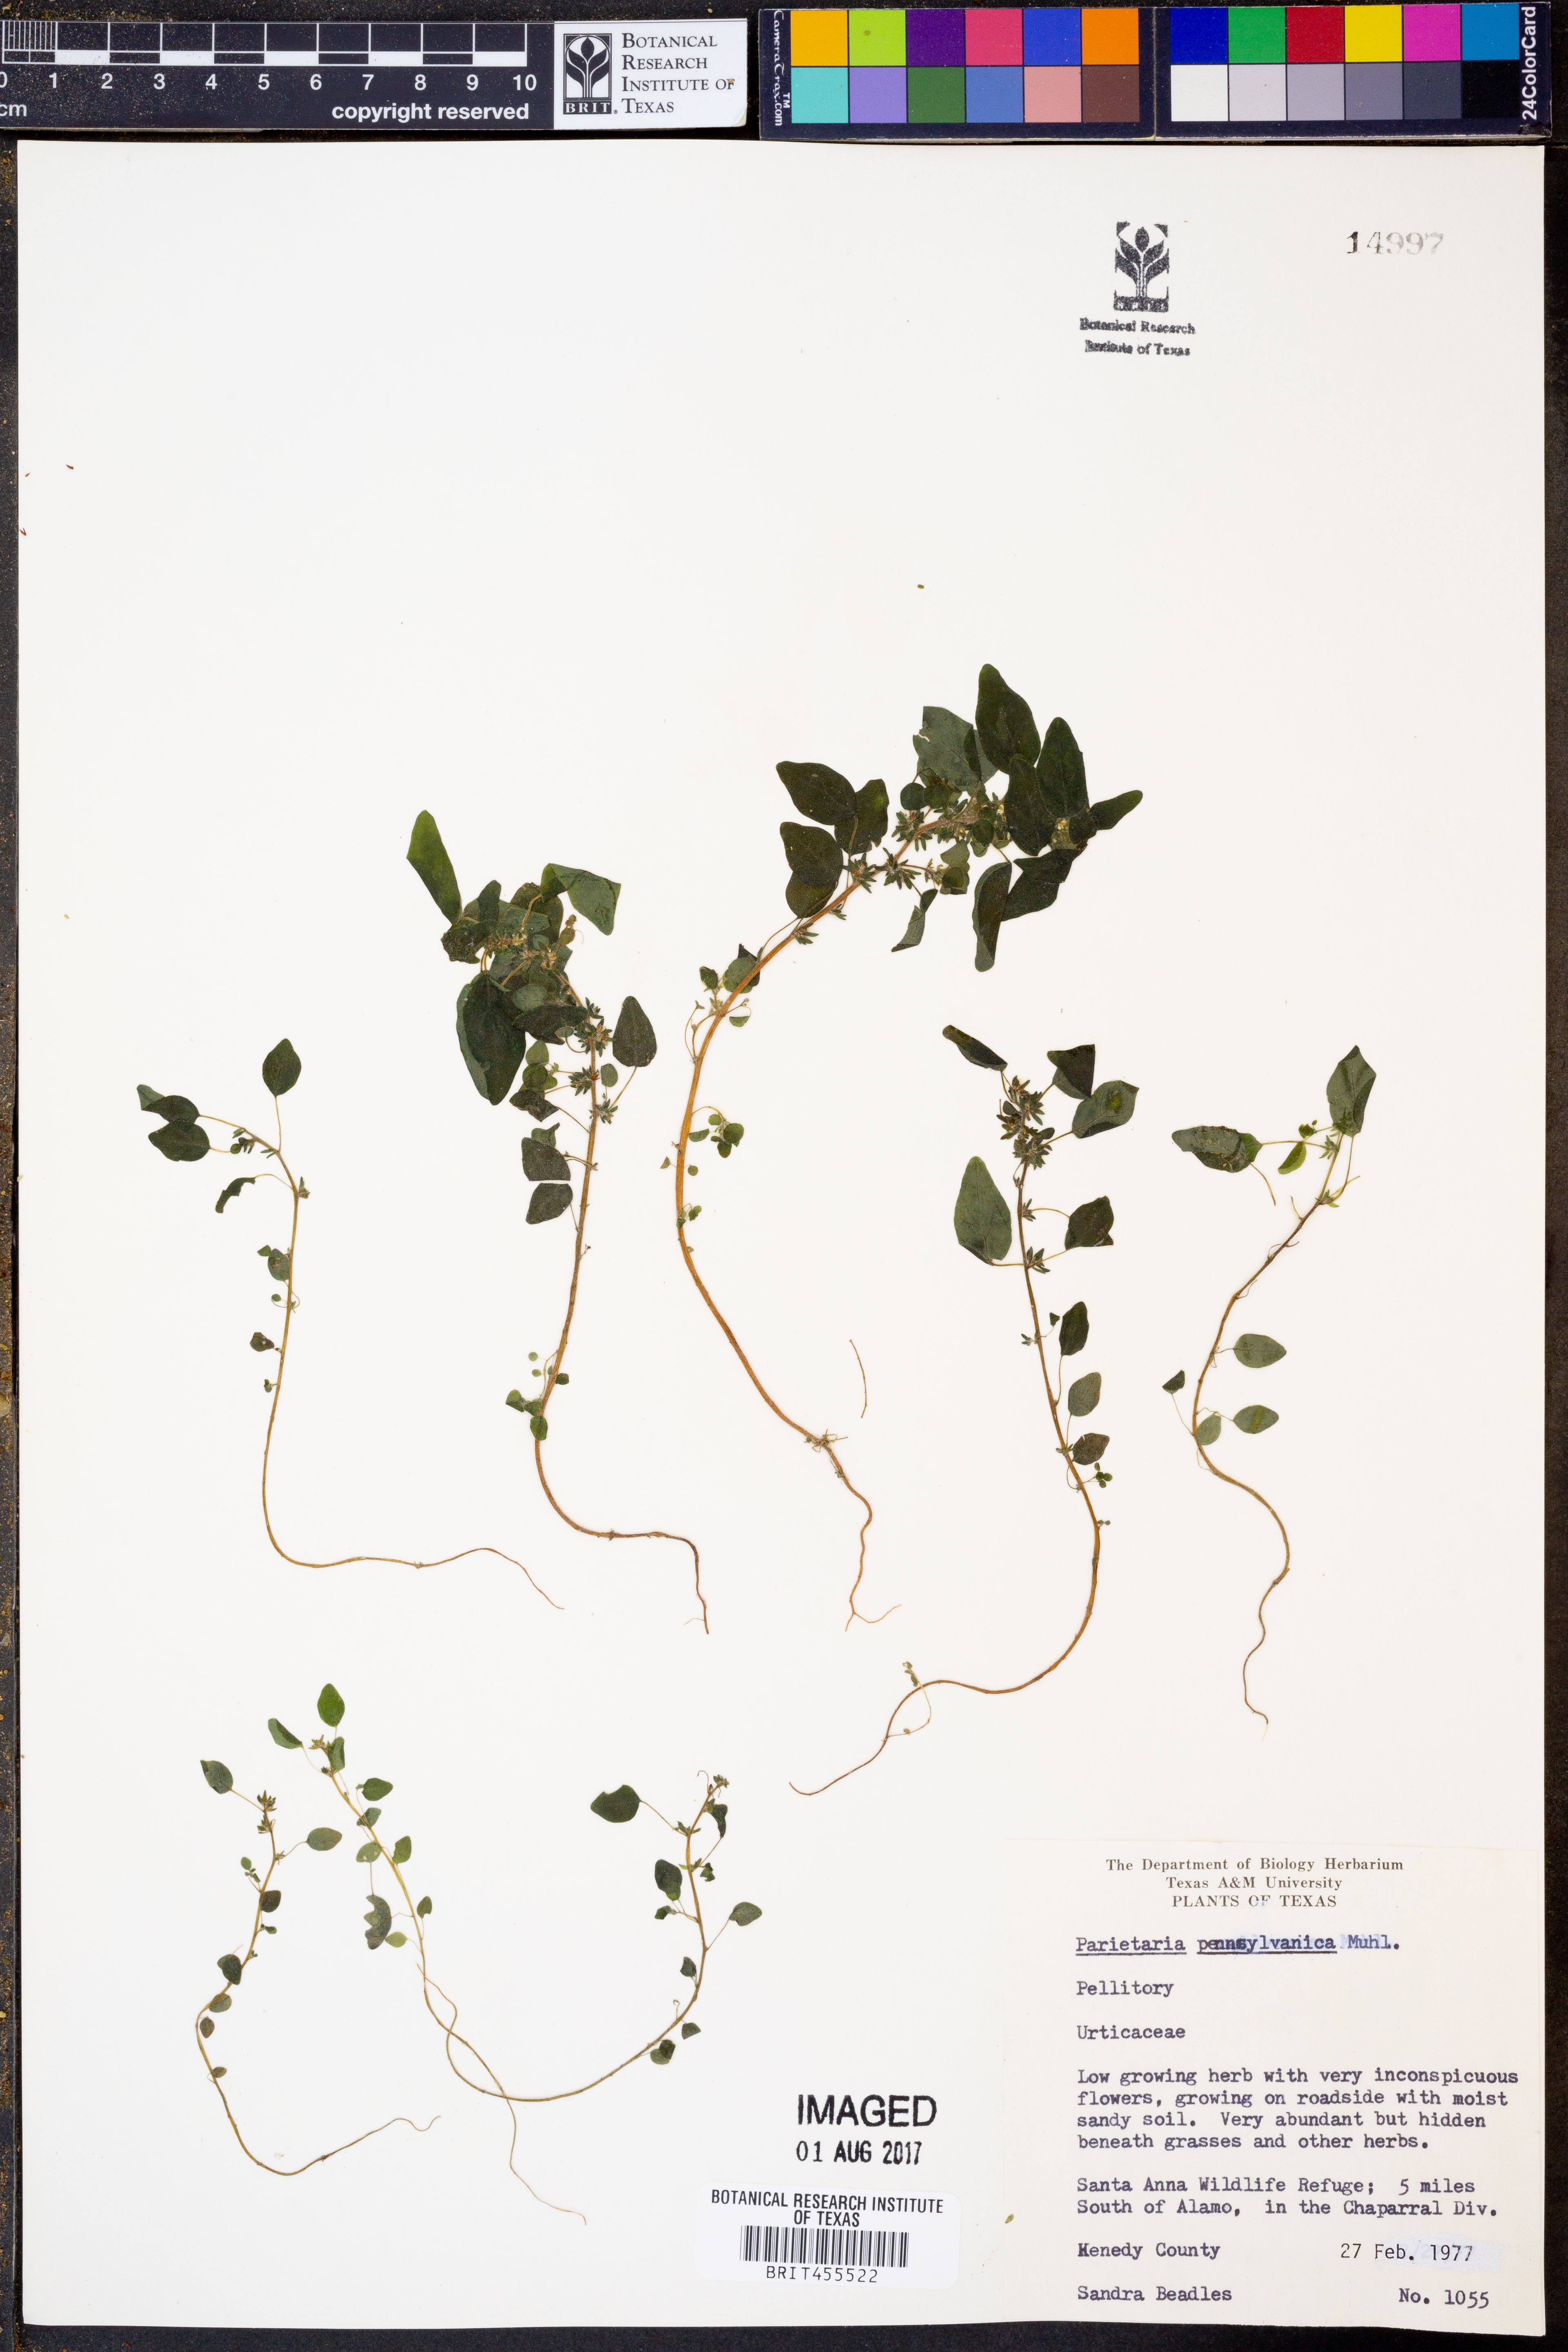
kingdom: Plantae
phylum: Tracheophyta
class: Magnoliopsida
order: Rosales
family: Urticaceae
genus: Parietaria
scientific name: Parietaria pensylvanica
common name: Pennsylvania pellitory
